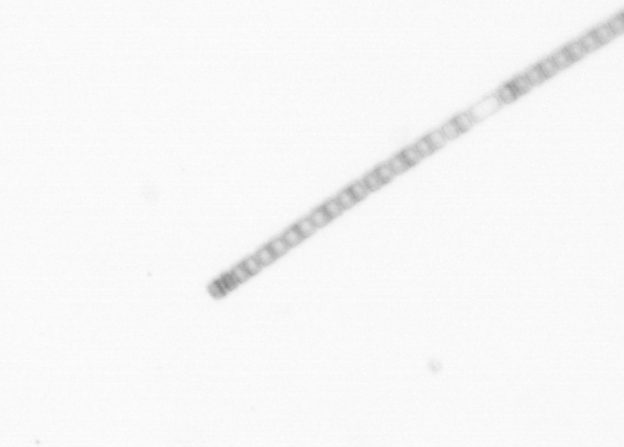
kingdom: Chromista
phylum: Ochrophyta
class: Bacillariophyceae
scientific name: Bacillariophyceae
